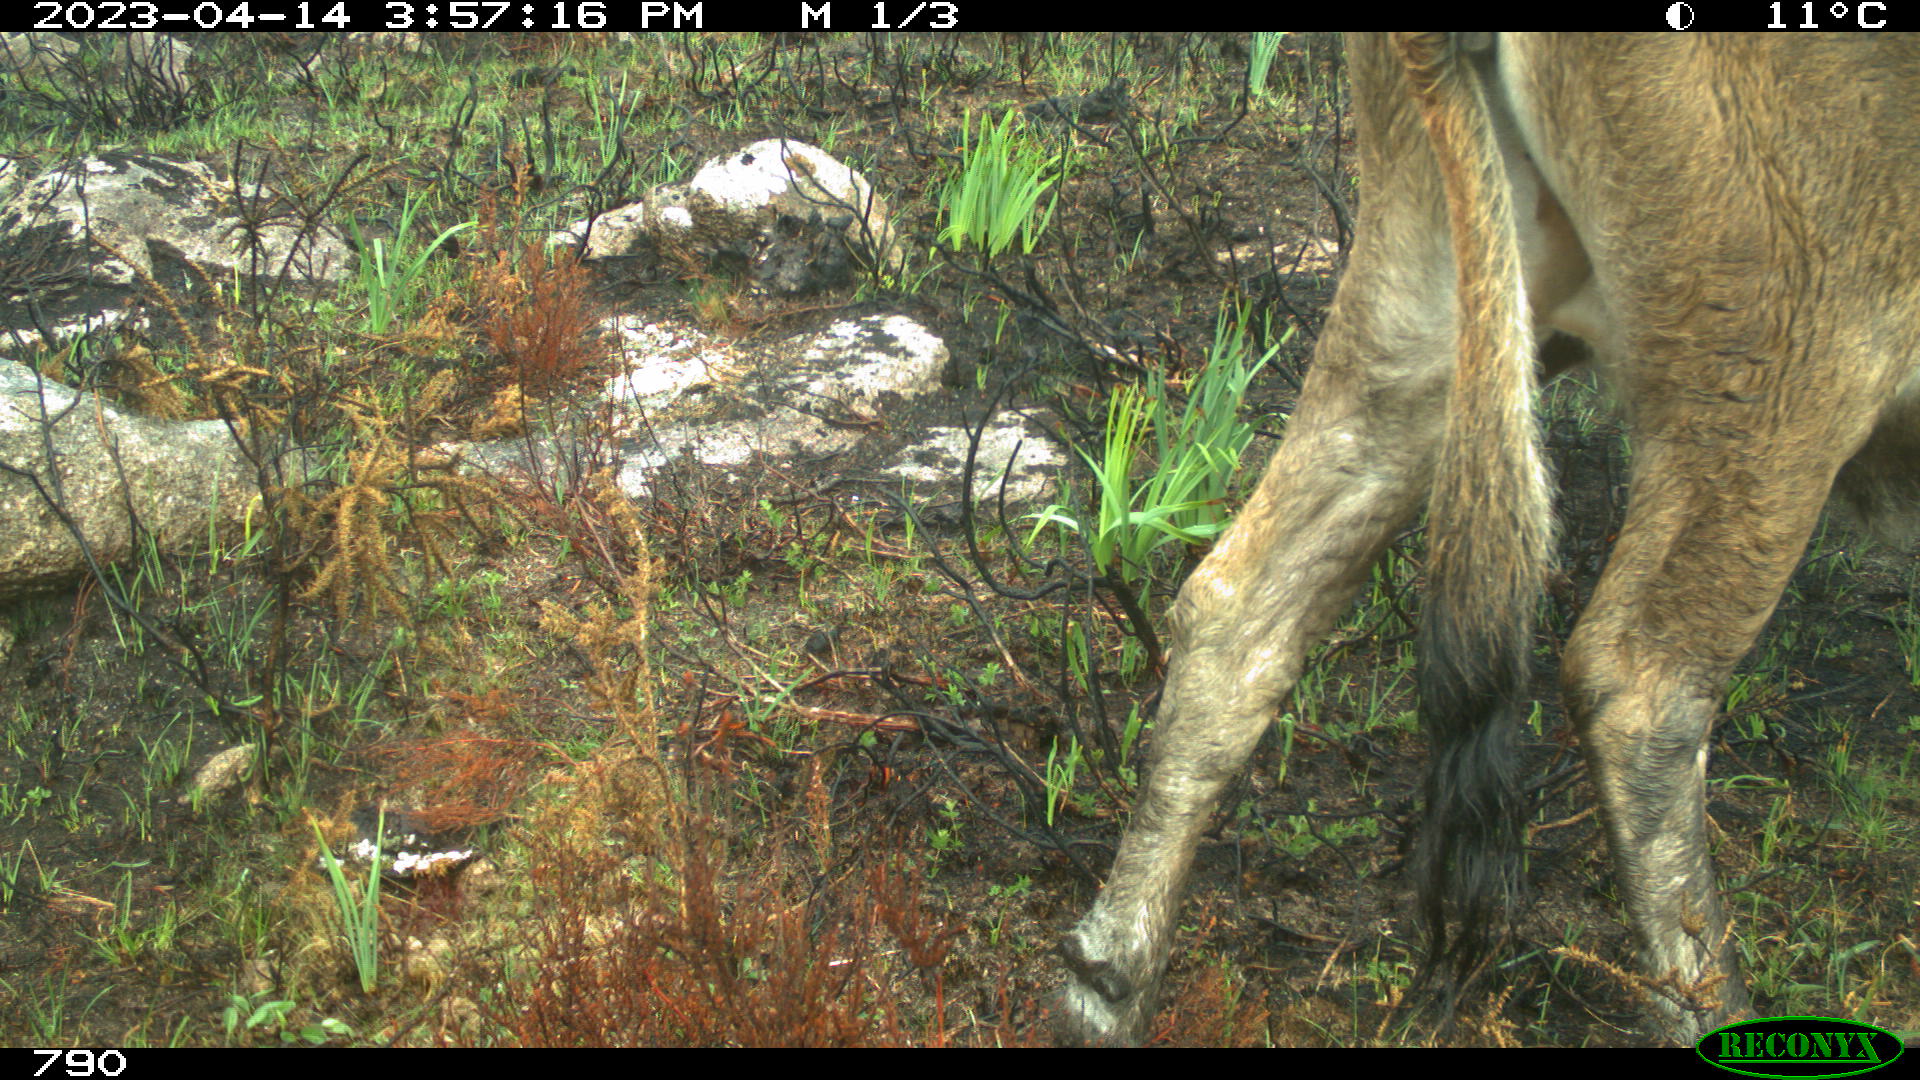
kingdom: Animalia
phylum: Chordata
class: Mammalia
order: Artiodactyla
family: Bovidae
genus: Bos
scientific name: Bos taurus
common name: Domesticated cattle
